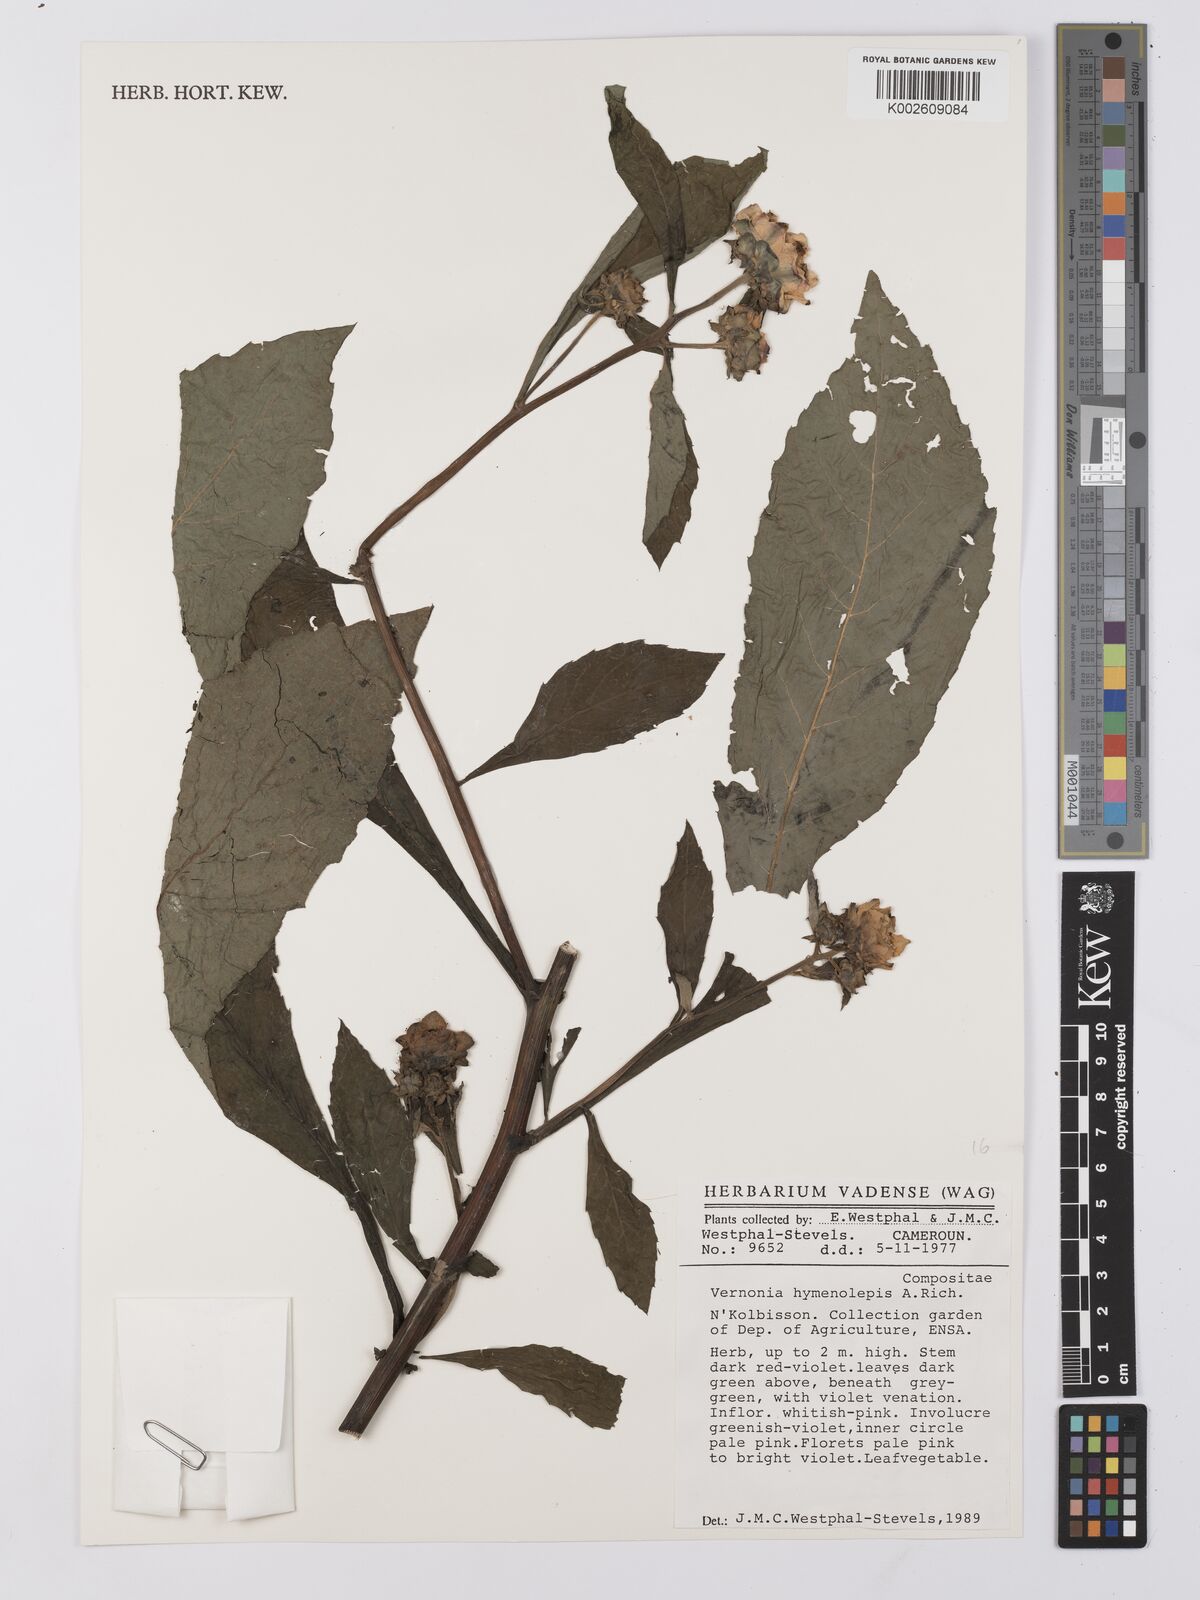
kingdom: Plantae
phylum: Tracheophyta
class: Magnoliopsida
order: Asterales
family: Asteraceae
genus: Baccharoides
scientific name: Baccharoides hymenolepis
